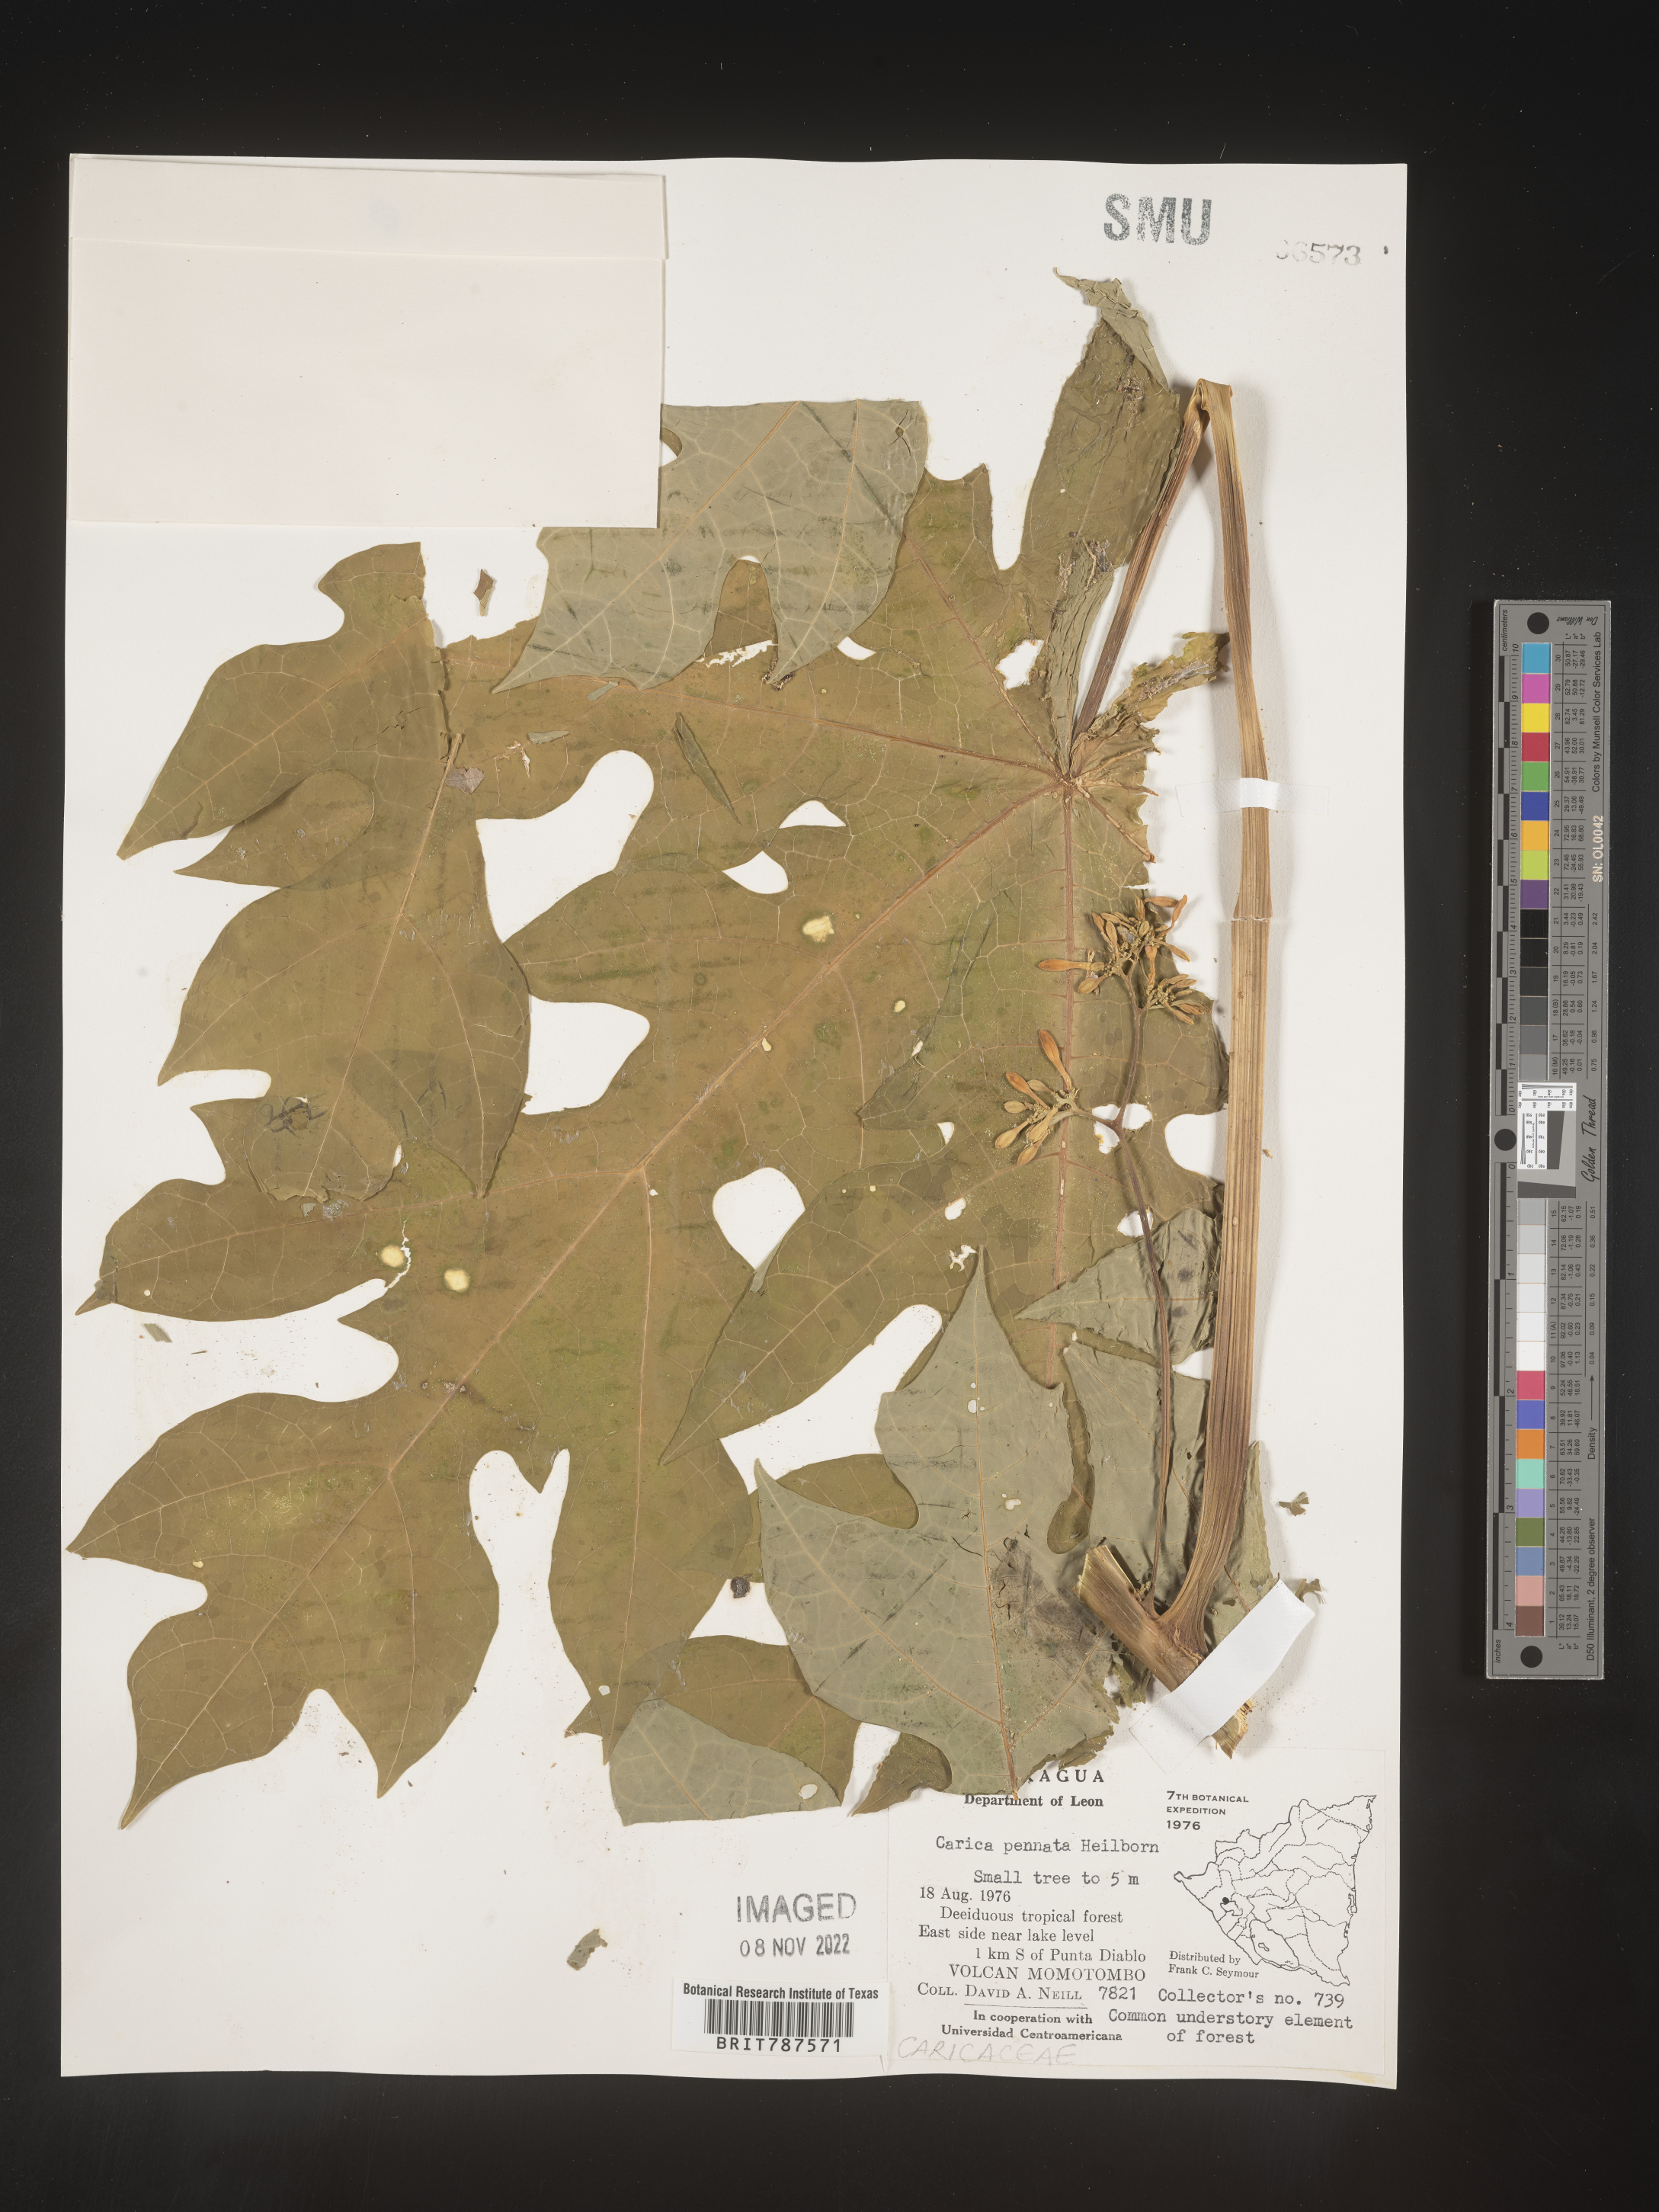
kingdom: Plantae
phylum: Tracheophyta
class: Magnoliopsida
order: Brassicales
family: Caricaceae
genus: Carica
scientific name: Carica
